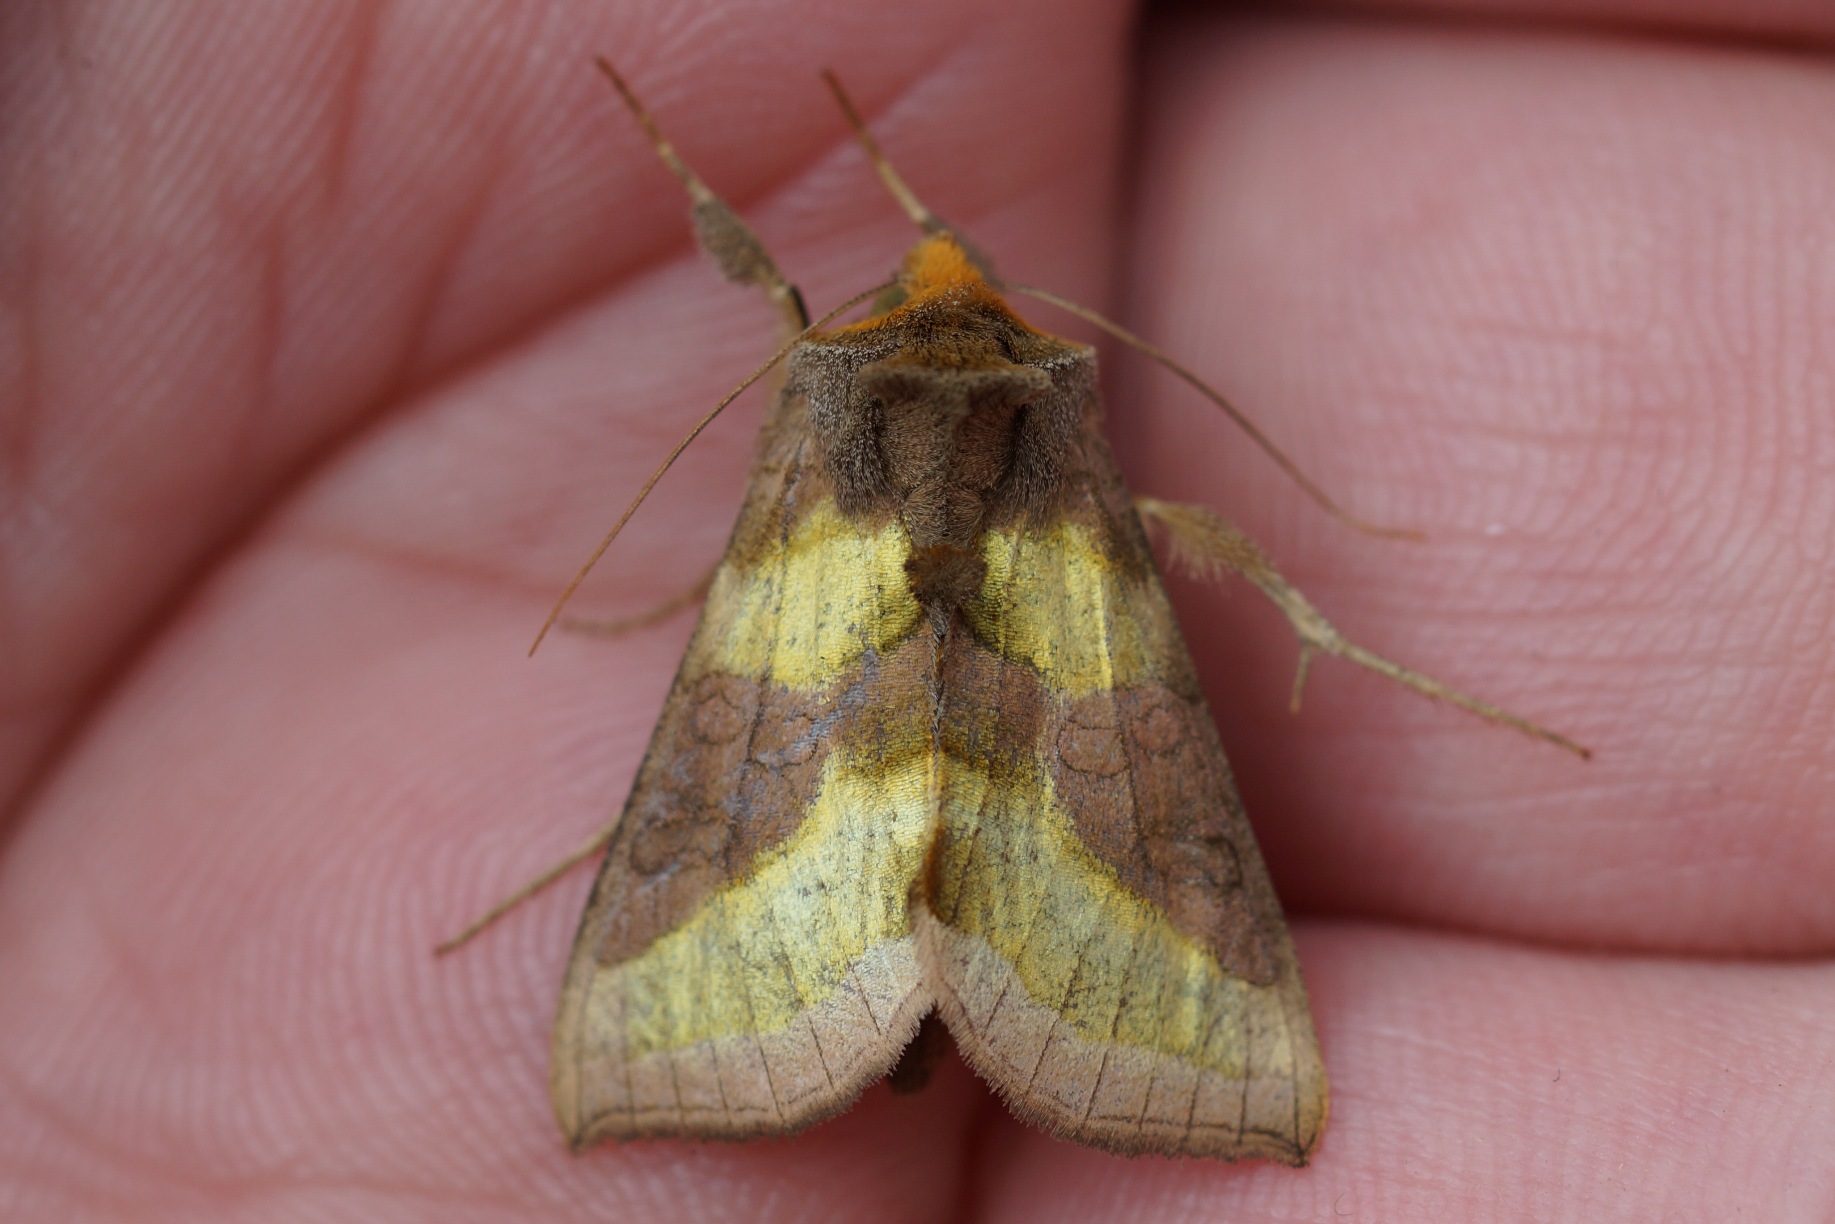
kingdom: Animalia
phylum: Arthropoda
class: Insecta
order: Lepidoptera
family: Noctuidae
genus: Diachrysia
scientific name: Diachrysia chrysitis
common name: Messingugle
